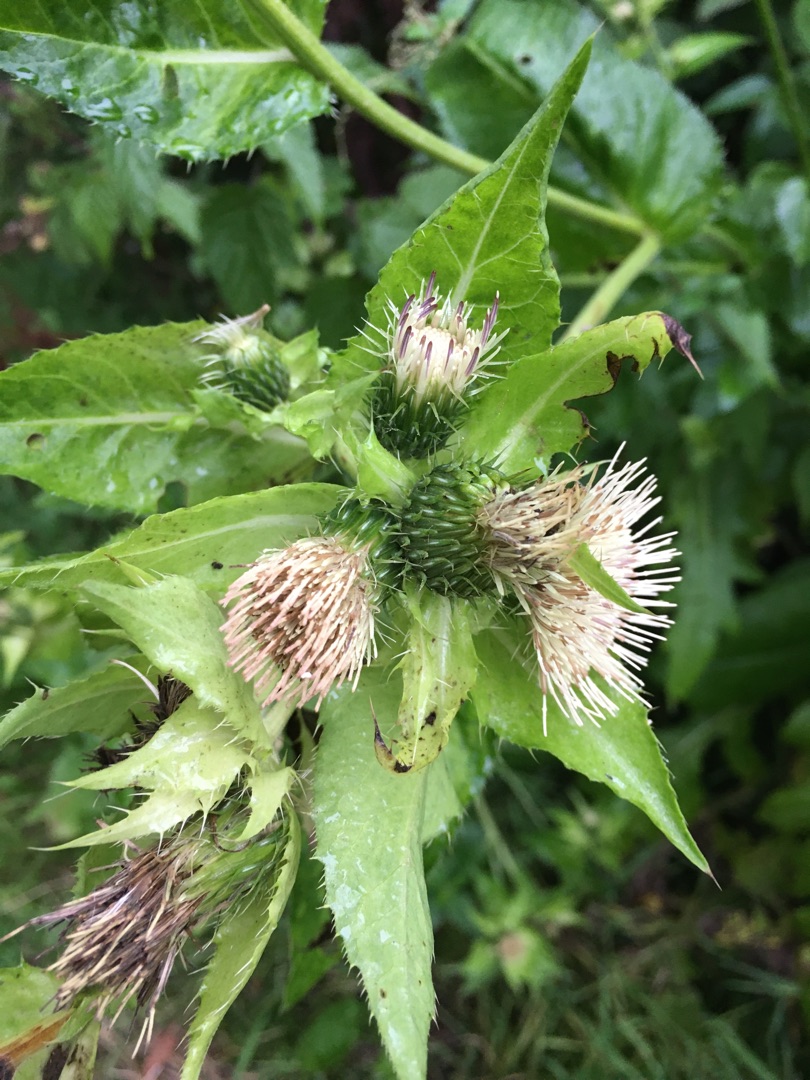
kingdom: Plantae
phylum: Tracheophyta
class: Magnoliopsida
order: Asterales
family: Asteraceae
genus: Cirsium
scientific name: Cirsium oleraceum
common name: Kål-tidsel
